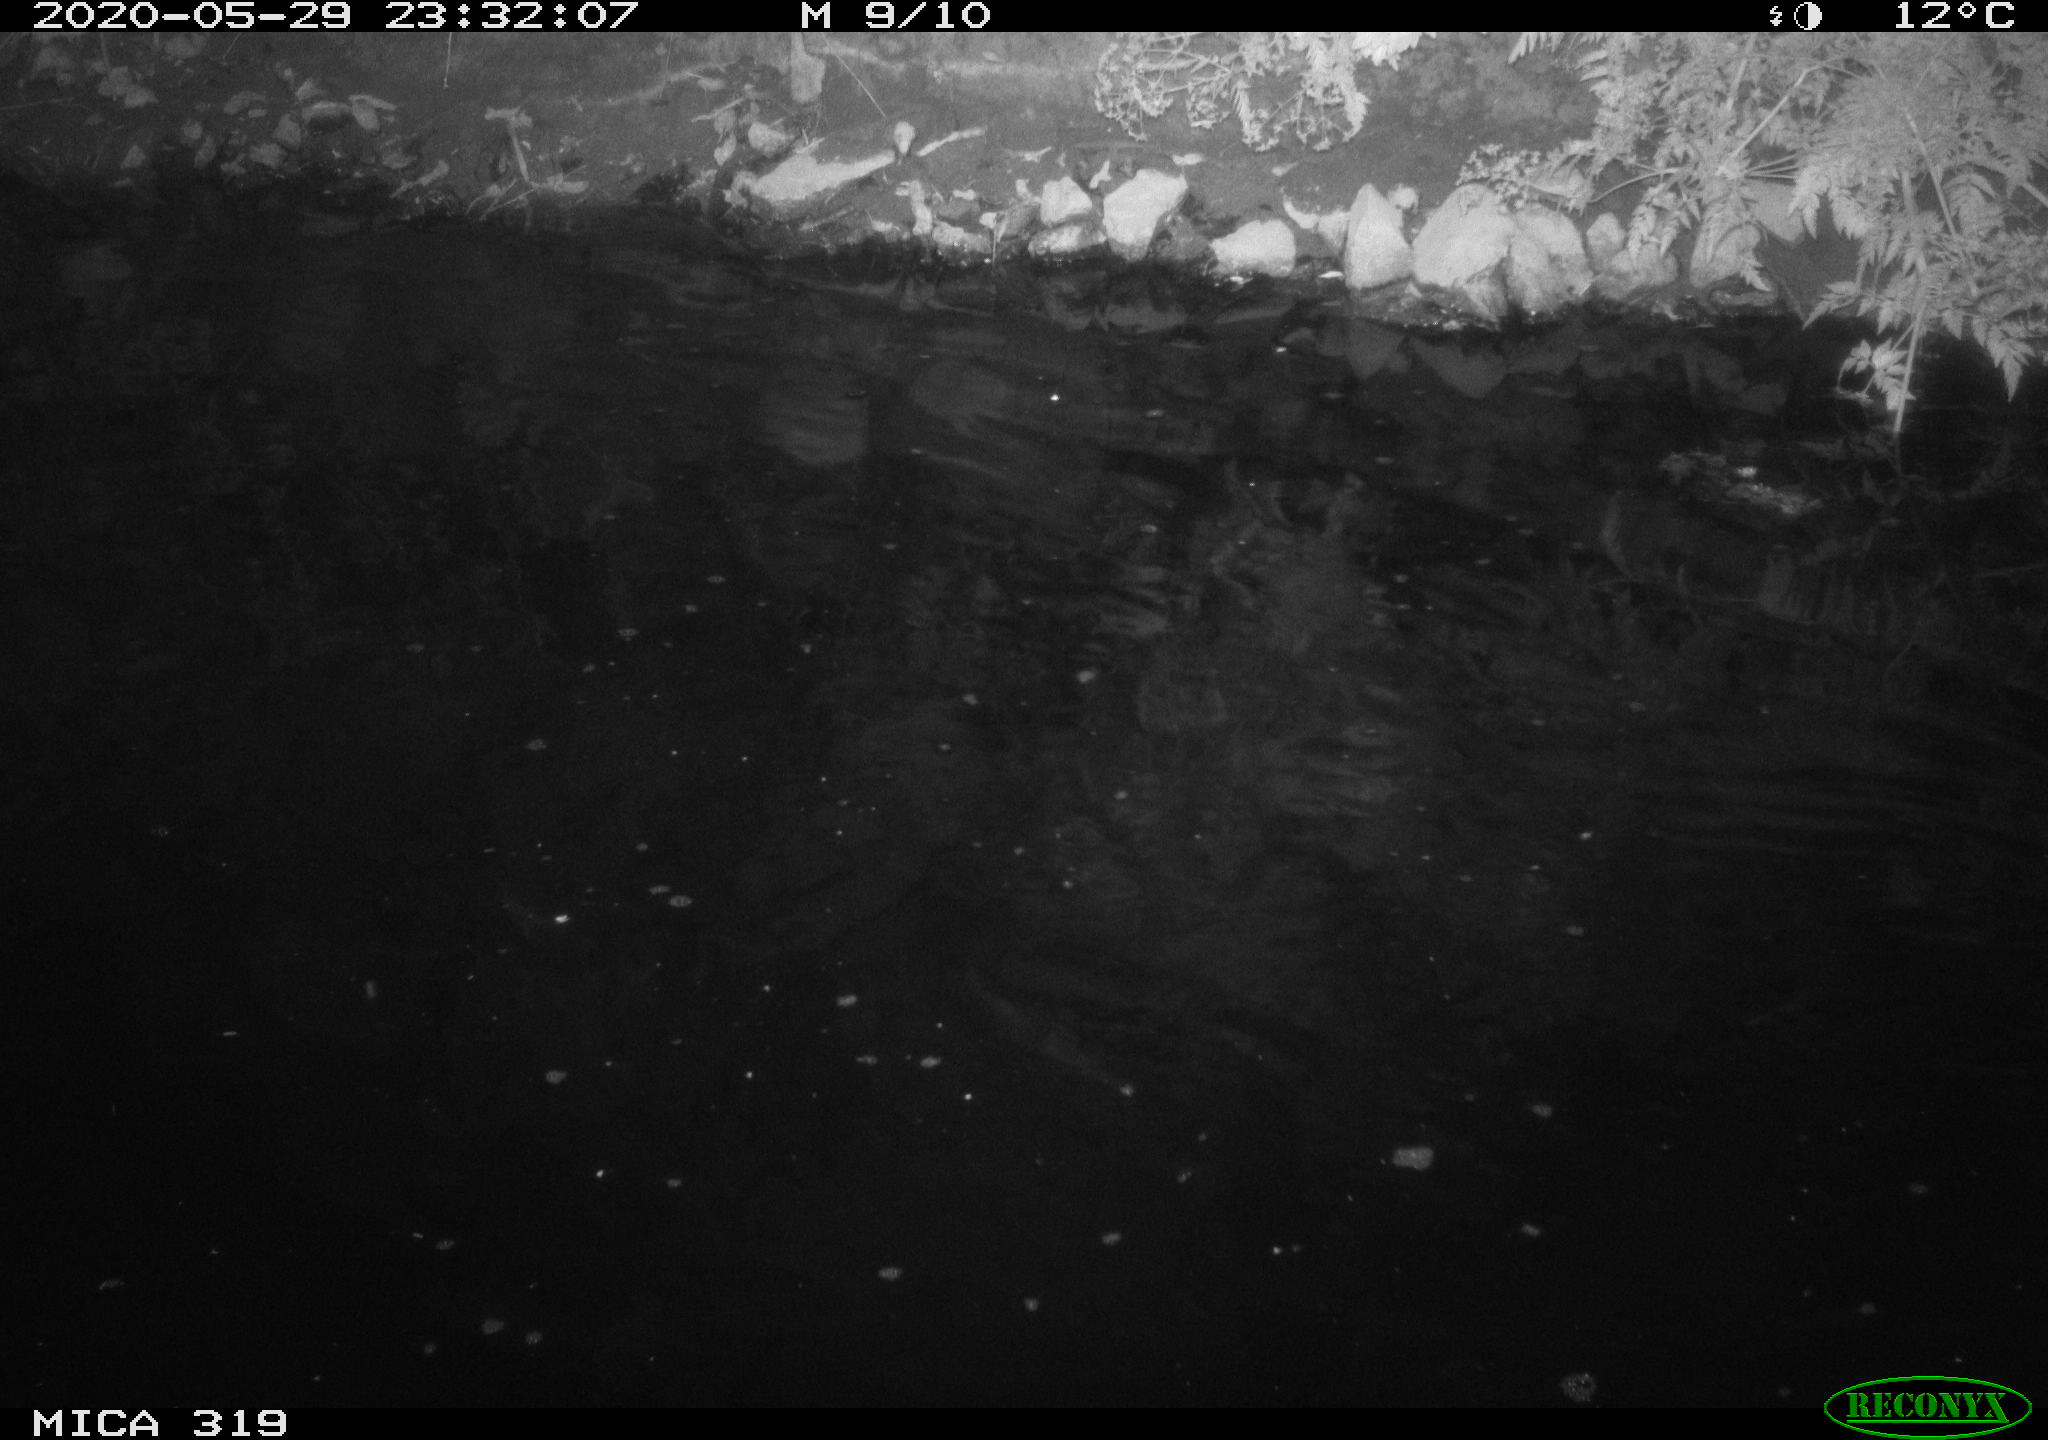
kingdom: Animalia
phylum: Chordata
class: Aves
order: Anseriformes
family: Anatidae
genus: Anas
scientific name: Anas platyrhynchos
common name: Mallard
